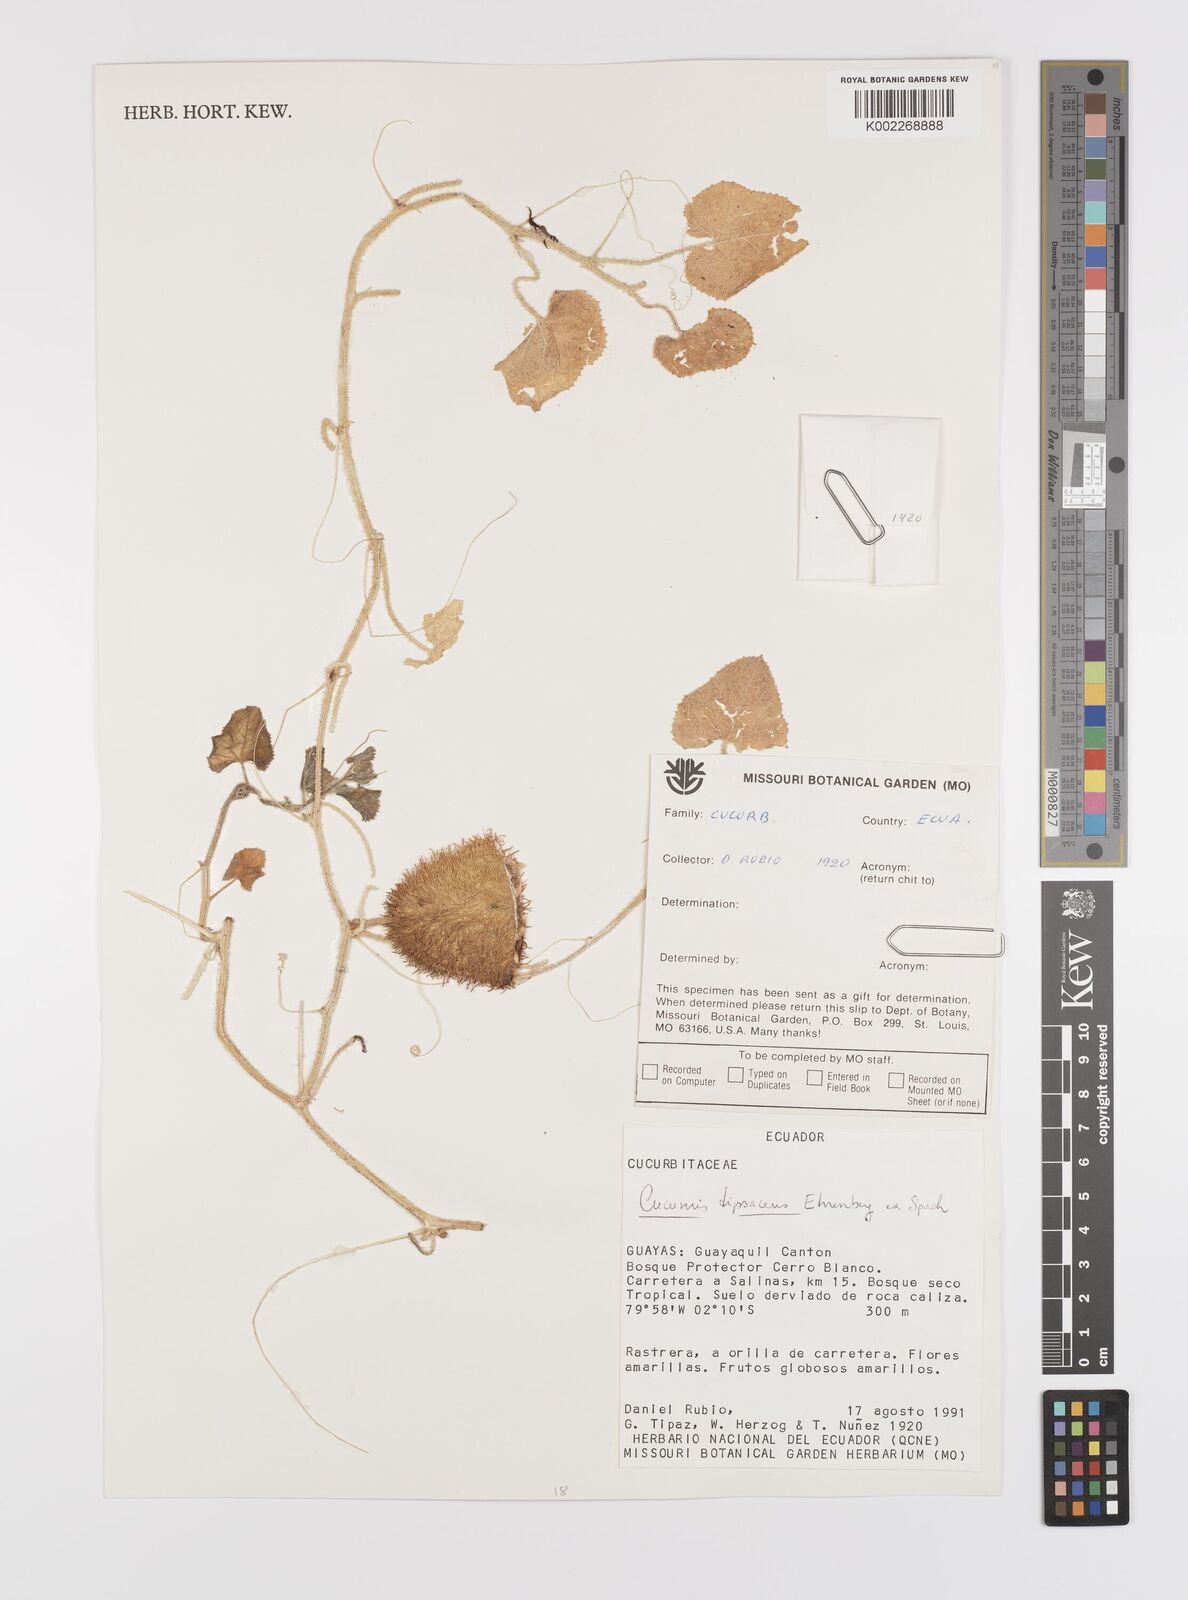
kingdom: Plantae
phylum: Tracheophyta
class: Magnoliopsida
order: Cucurbitales
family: Cucurbitaceae
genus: Cucumis
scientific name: Cucumis
